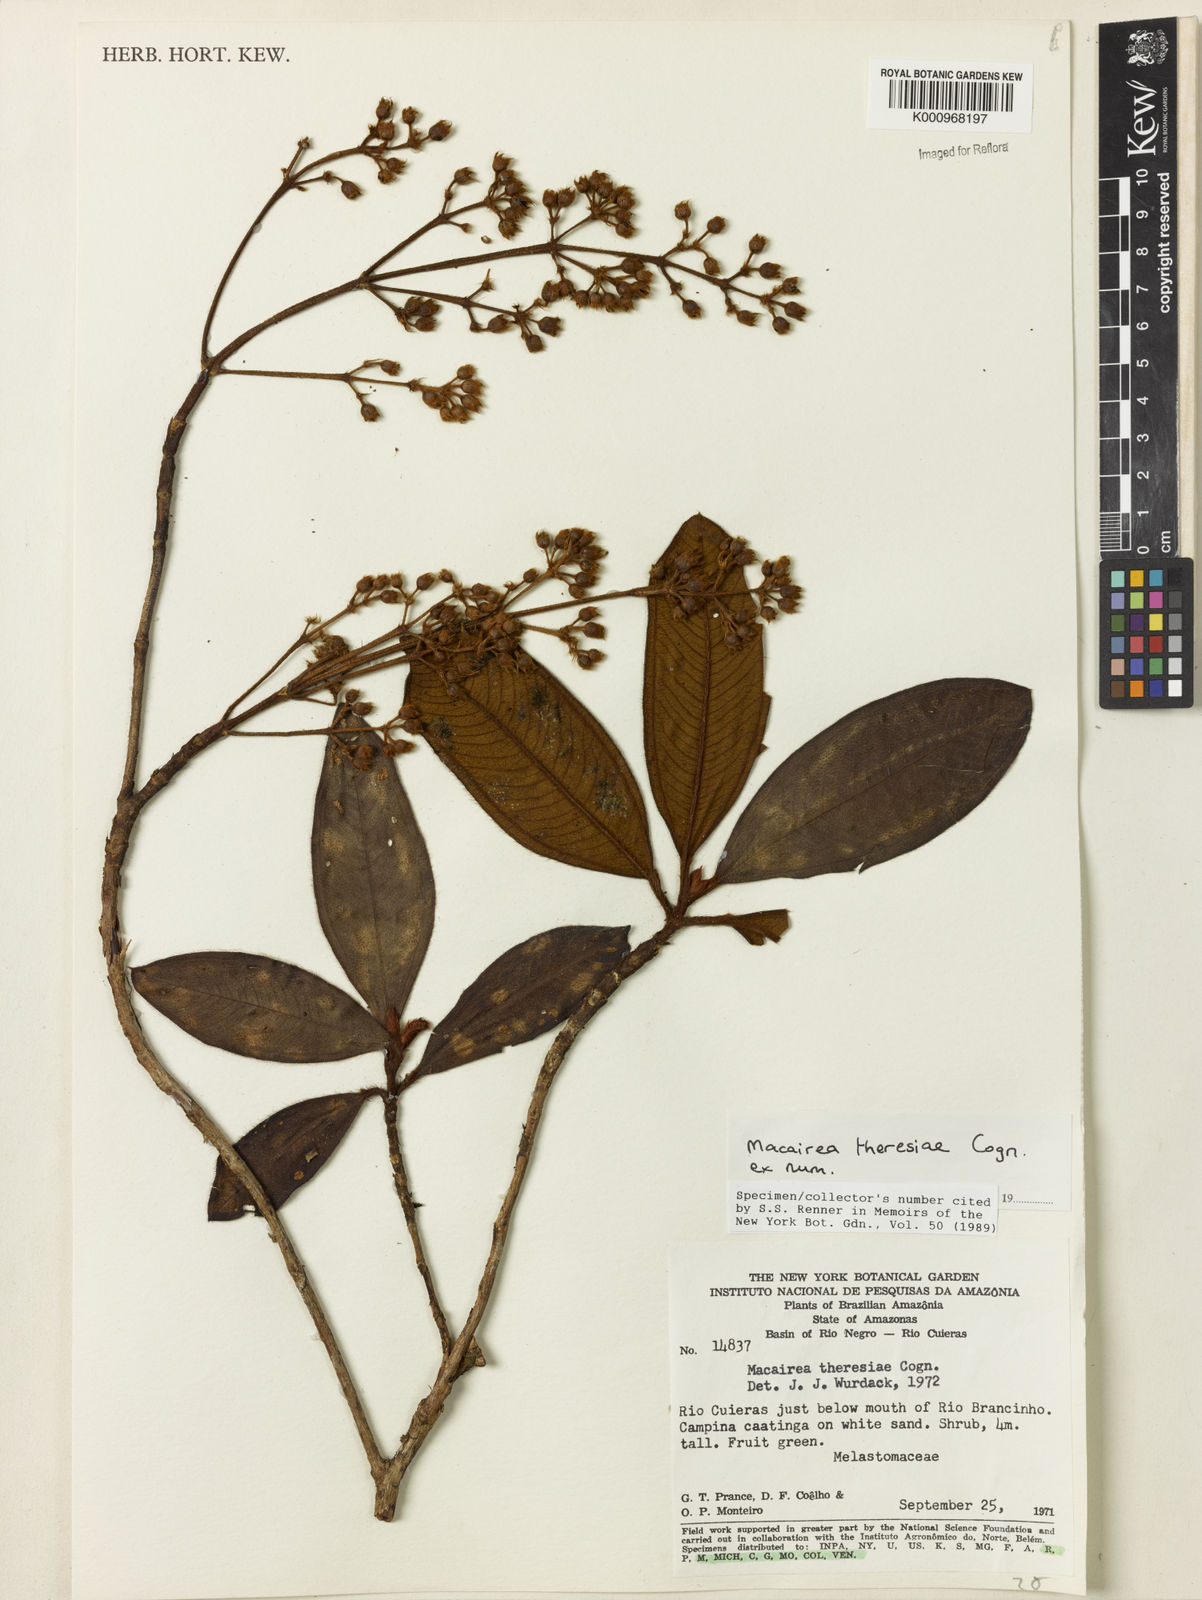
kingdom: Plantae
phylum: Tracheophyta
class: Magnoliopsida
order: Myrtales
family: Melastomataceae
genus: Macairea
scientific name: Macairea theresiae
